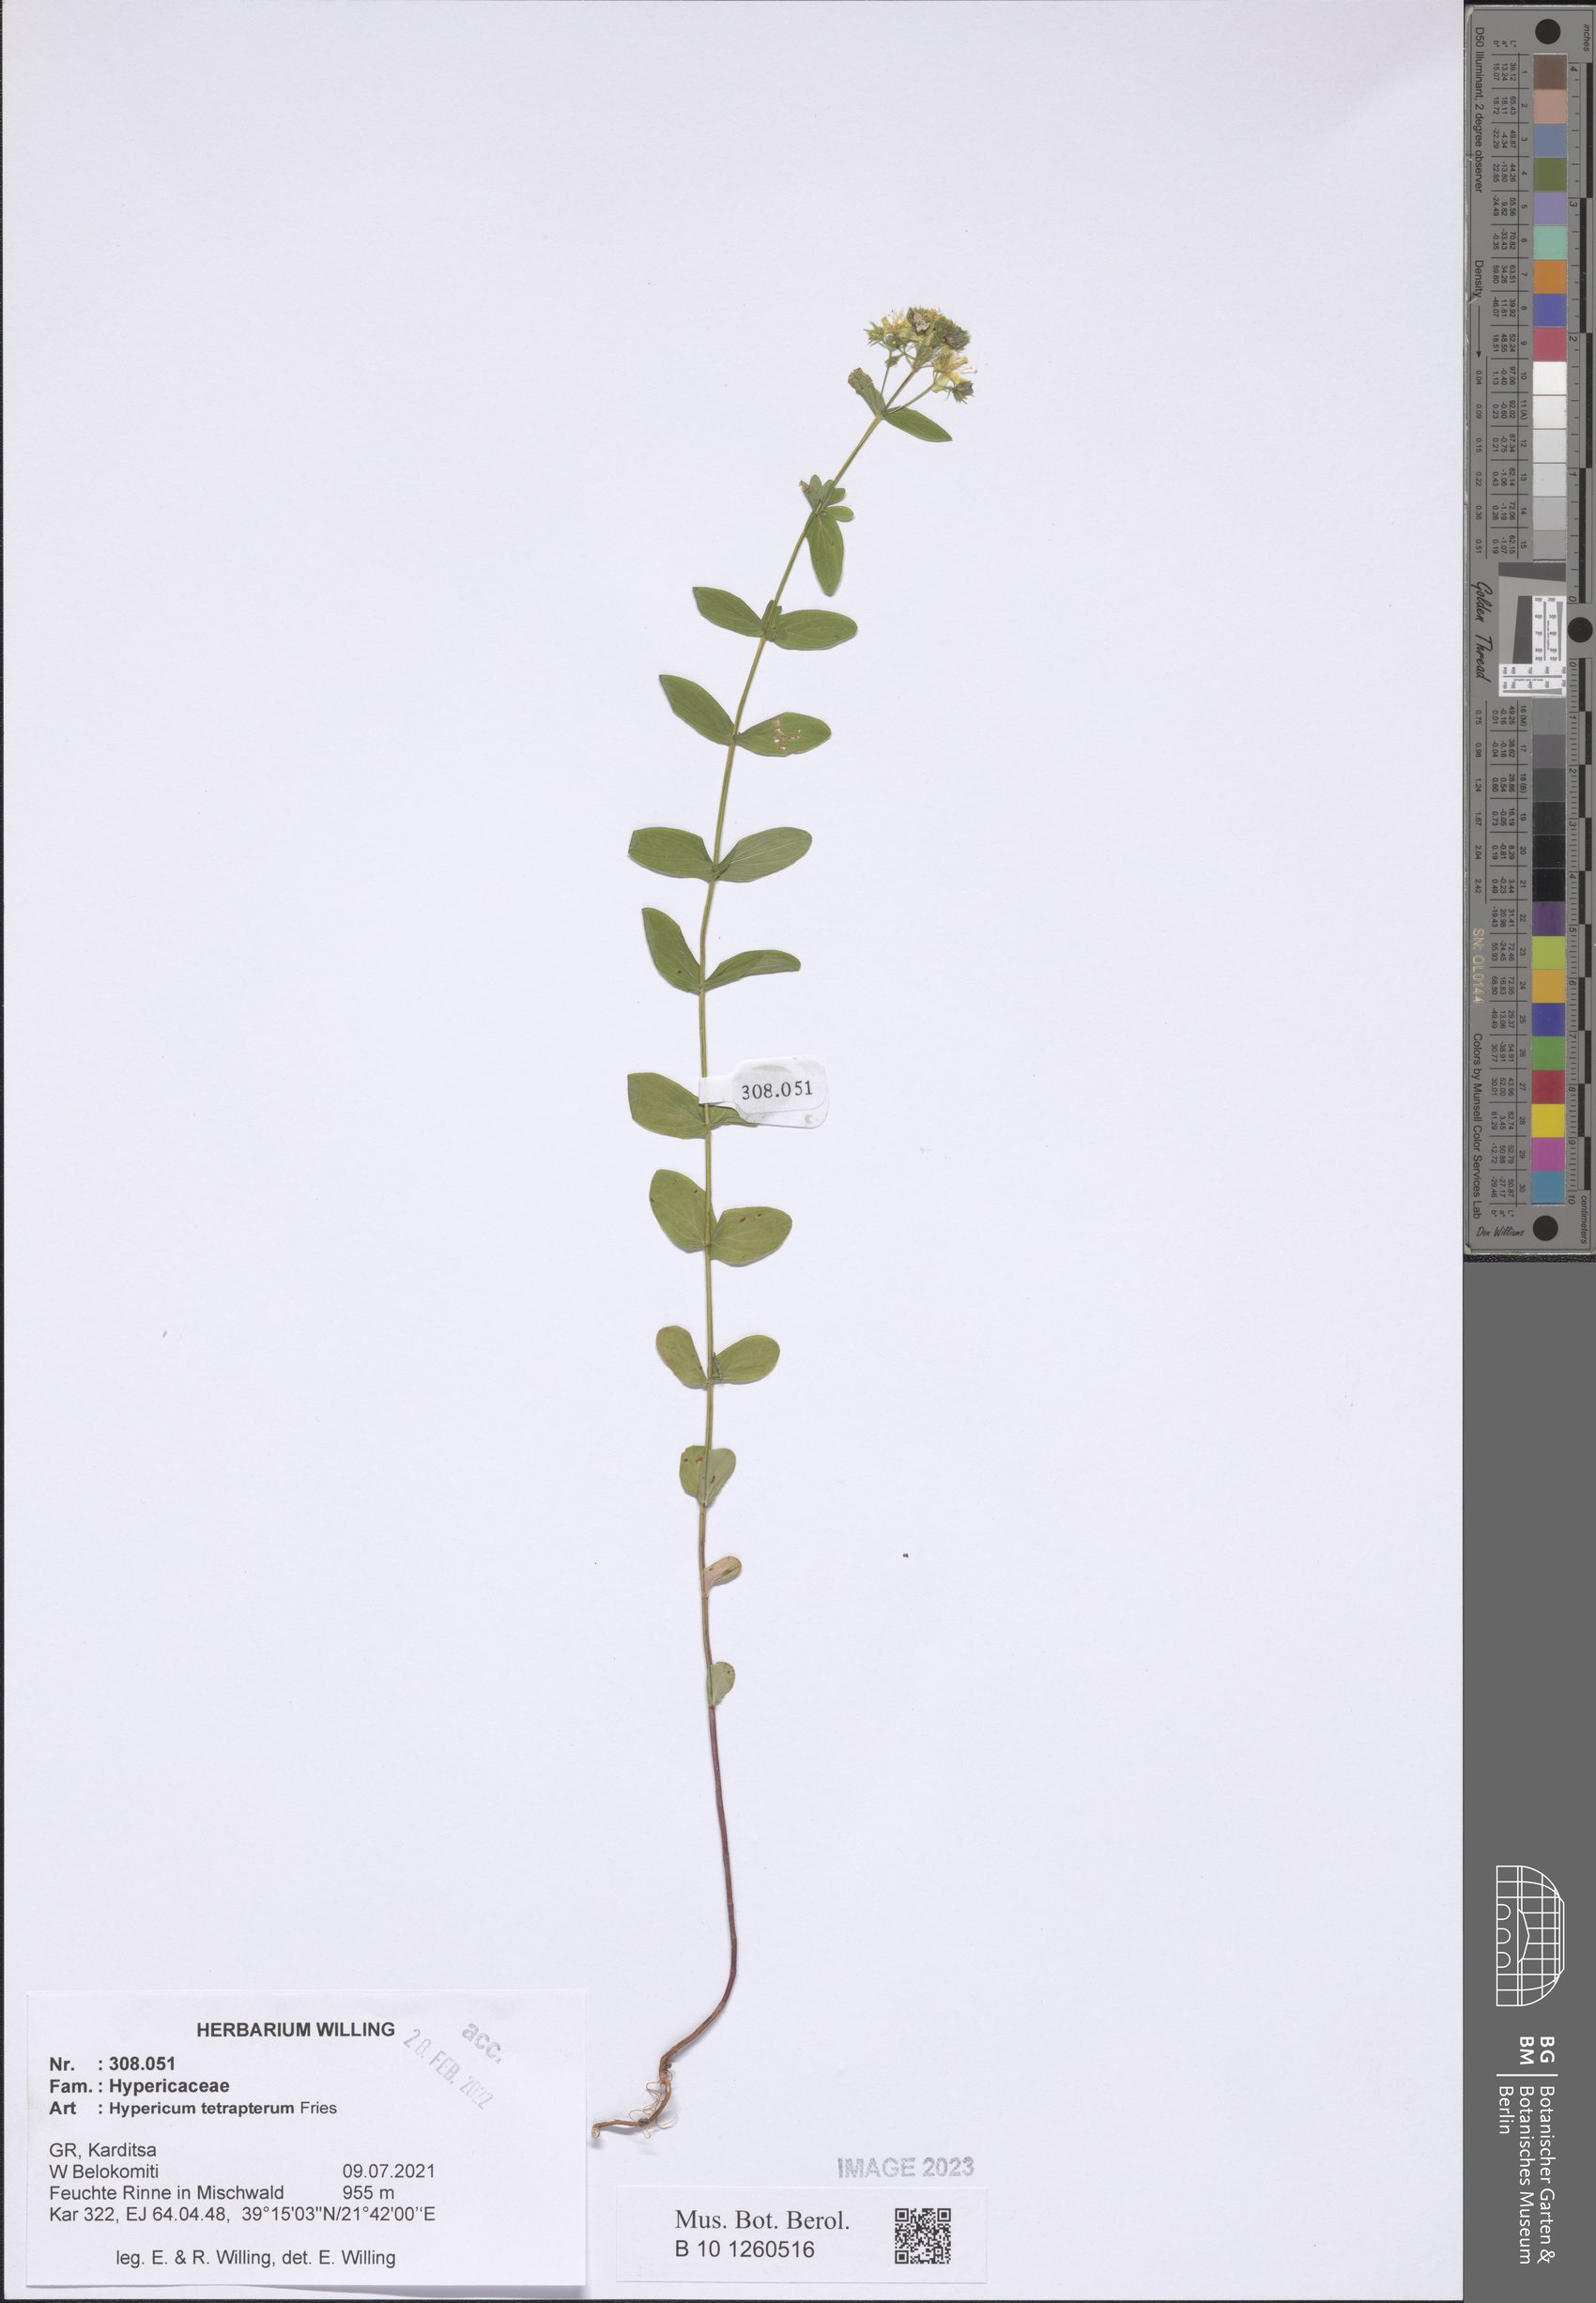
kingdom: Plantae
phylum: Tracheophyta
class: Magnoliopsida
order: Malpighiales
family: Hypericaceae
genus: Hypericum
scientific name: Hypericum tetrapterum
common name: Square-stalked st. john's-wort
